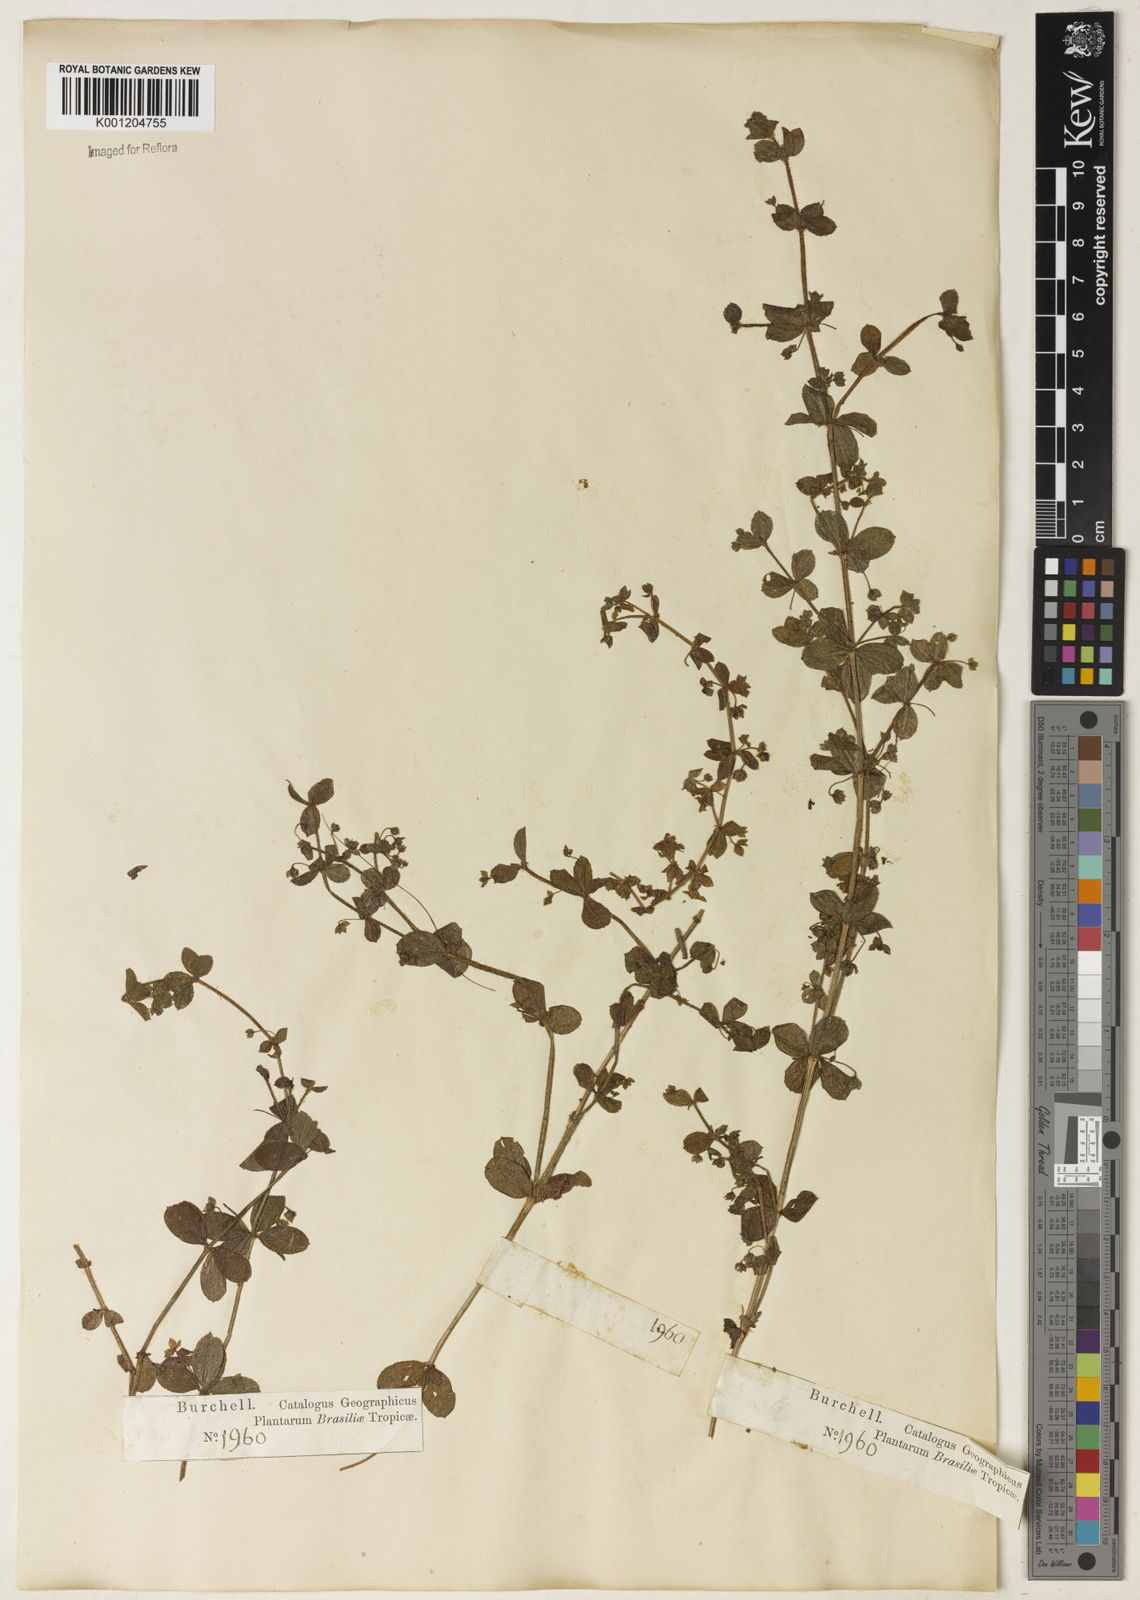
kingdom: Plantae
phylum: Tracheophyta
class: Magnoliopsida
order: Gentianales
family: Rubiaceae
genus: Galium
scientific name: Galium noxium
